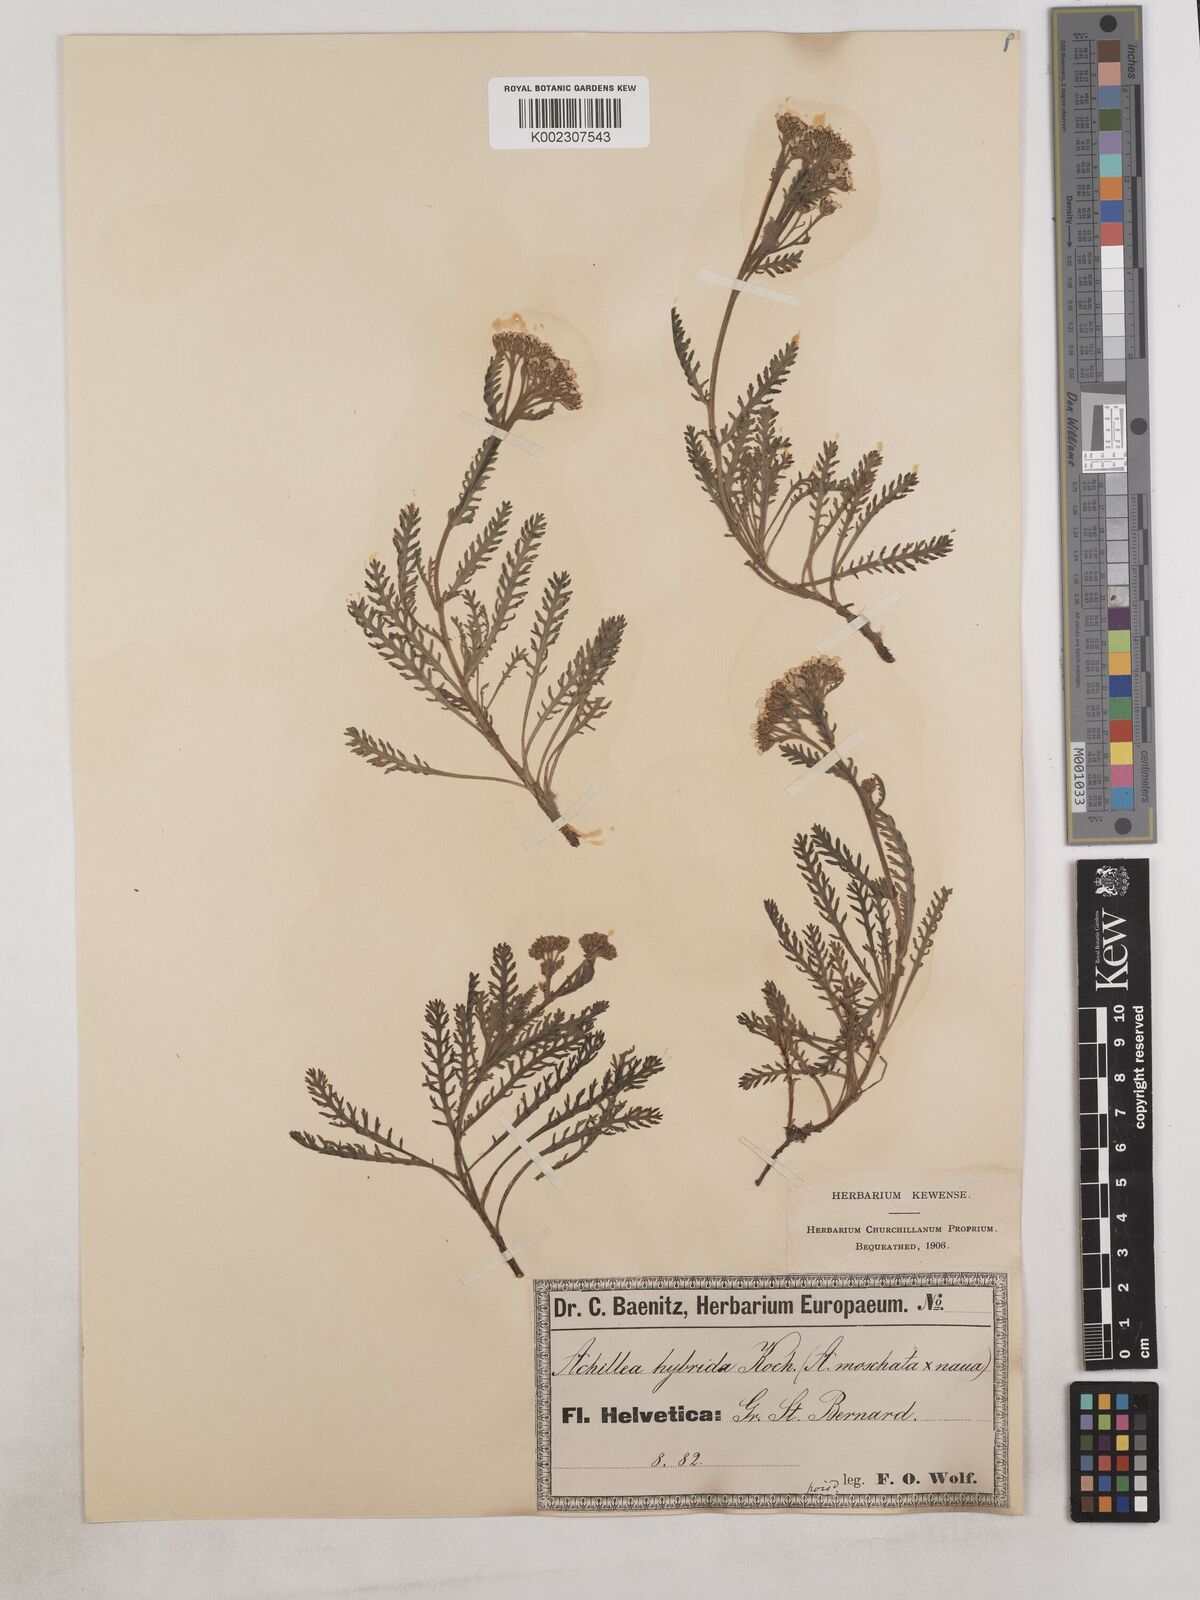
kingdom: Plantae
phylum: Tracheophyta
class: Magnoliopsida
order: Asterales
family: Asteraceae
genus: Achillea
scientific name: Achillea erba-rotta
